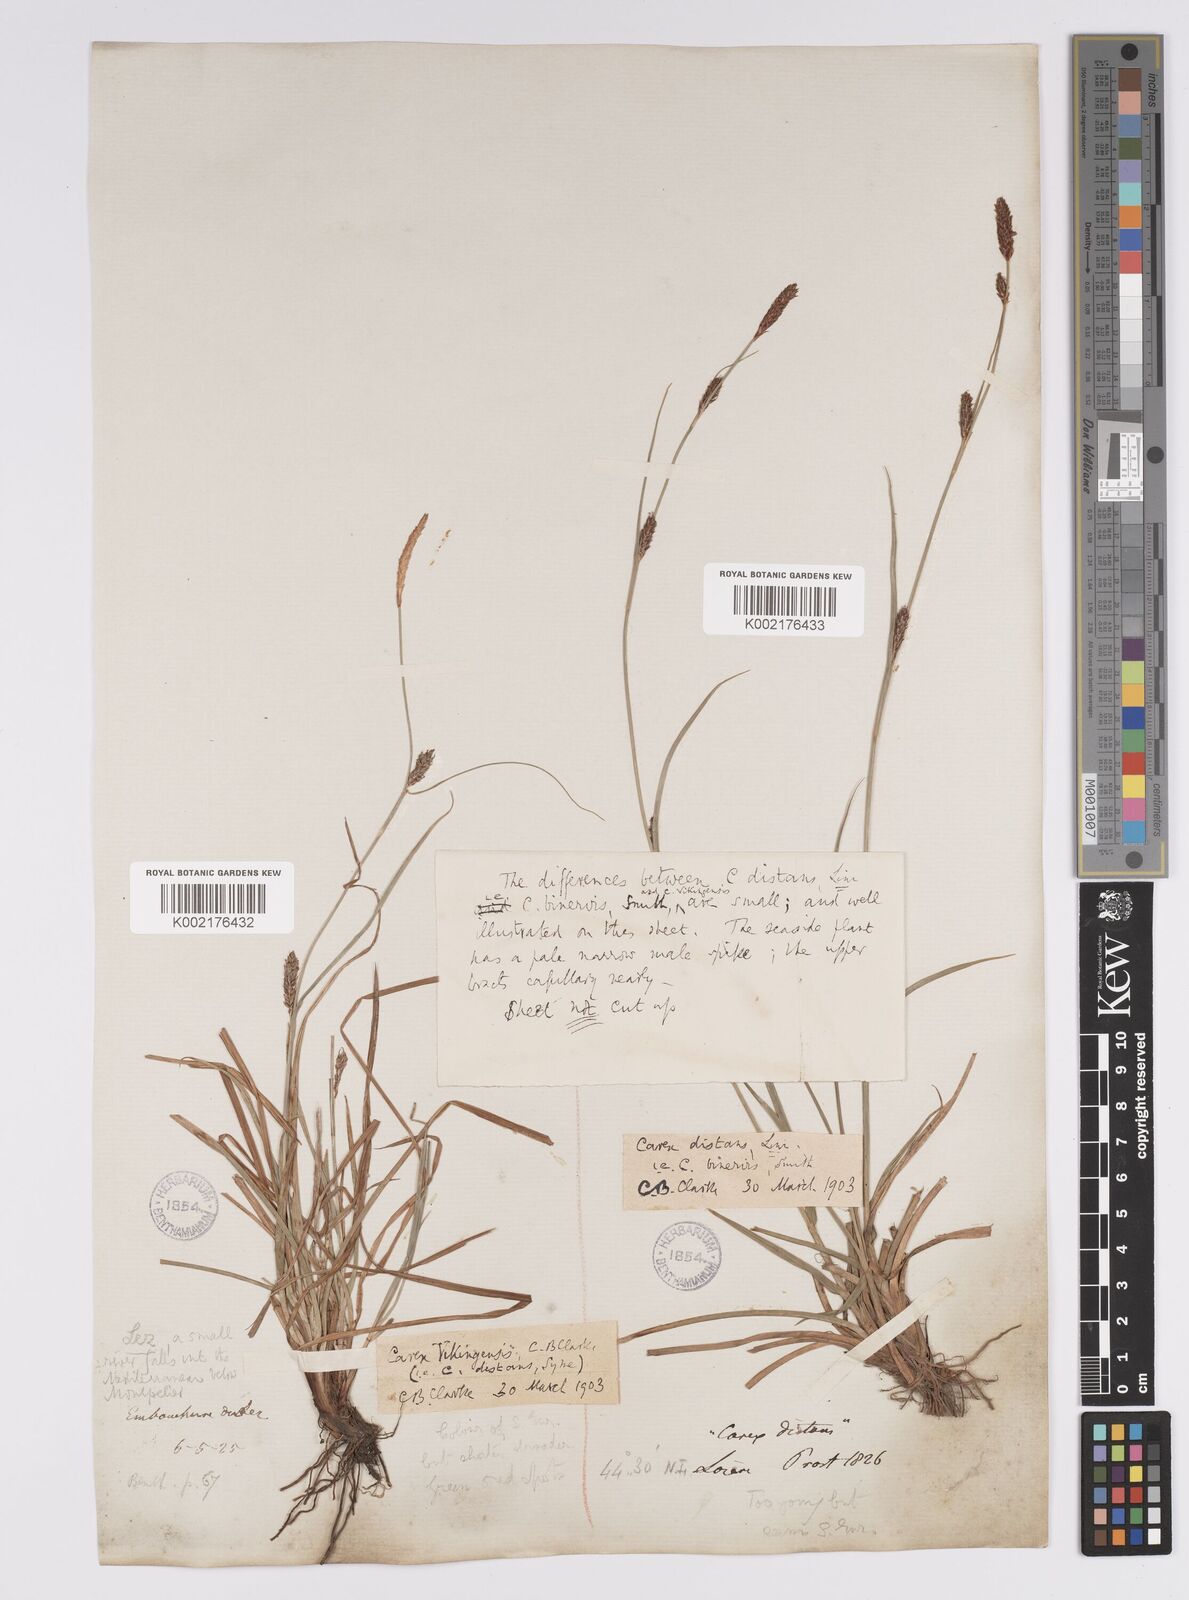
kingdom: Plantae
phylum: Tracheophyta
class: Liliopsida
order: Poales
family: Cyperaceae
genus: Carex
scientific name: Carex distans
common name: Distant sedge
